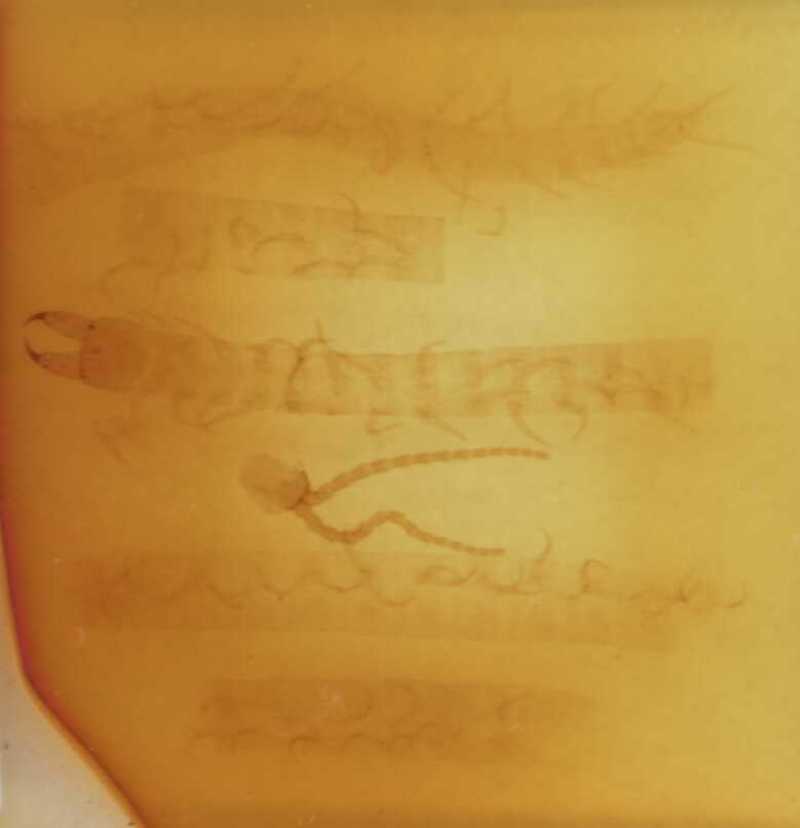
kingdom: Animalia
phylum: Arthropoda
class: Chilopoda
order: Geophilomorpha
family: Geophilidae
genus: Polygonarea
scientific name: Polygonarea litoralis
